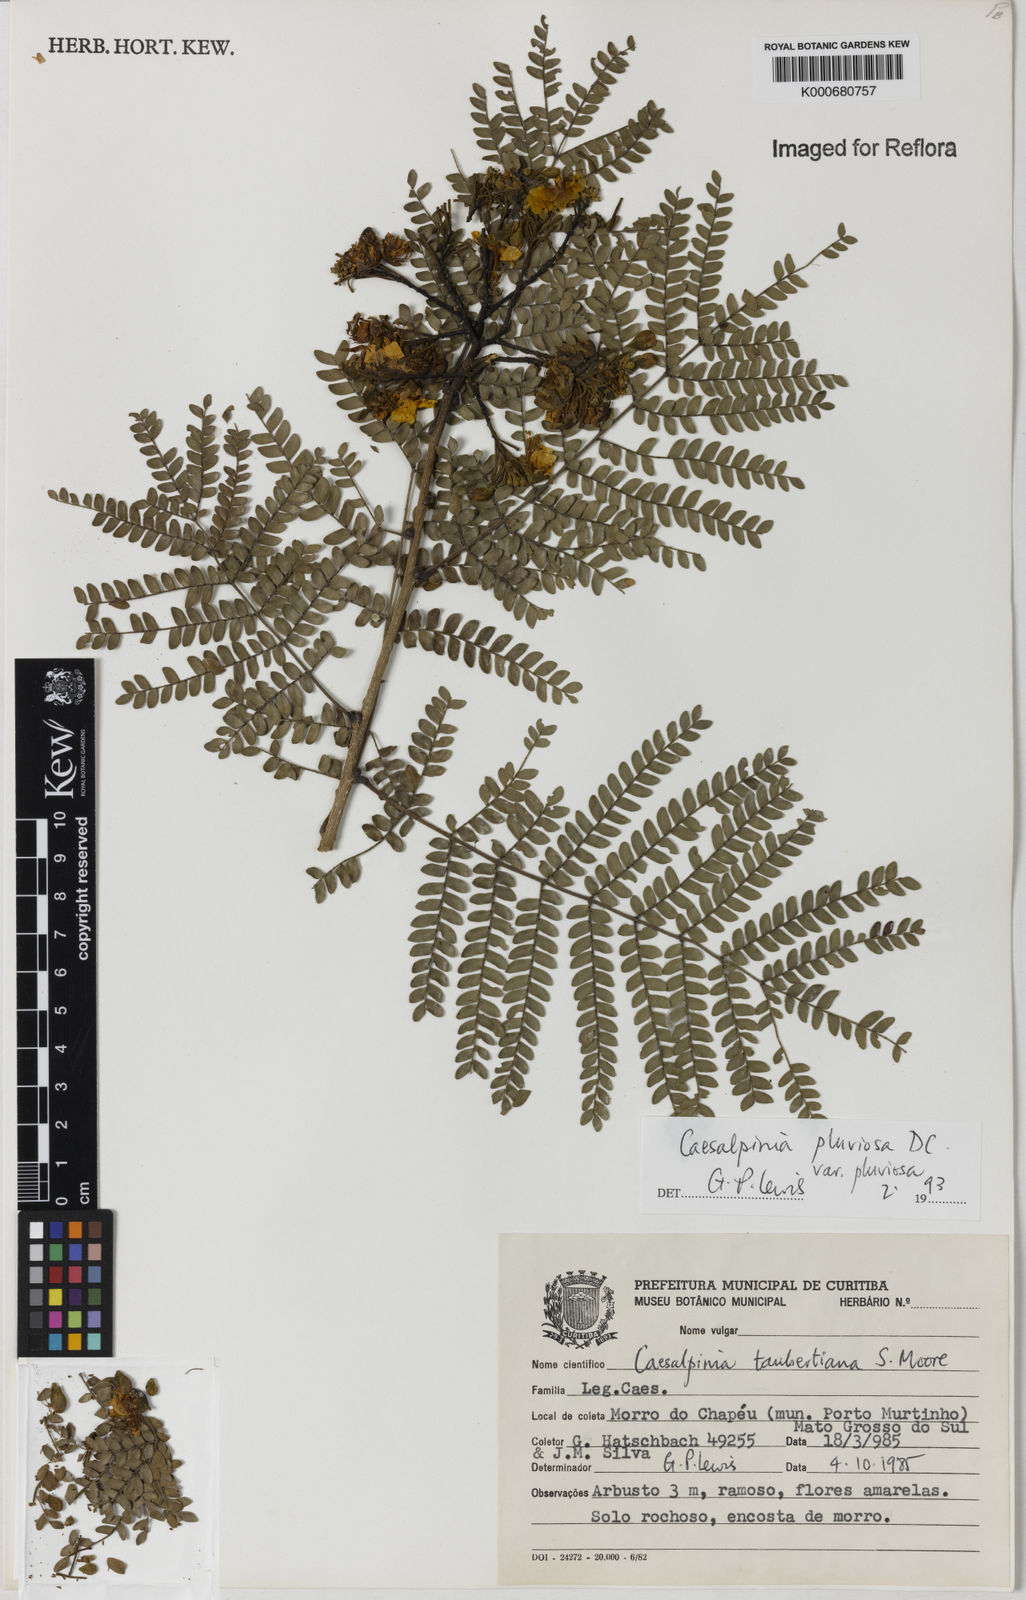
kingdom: Plantae
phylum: Tracheophyta
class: Magnoliopsida
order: Fabales
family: Fabaceae
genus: Cenostigma
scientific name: Cenostigma pluviosum
